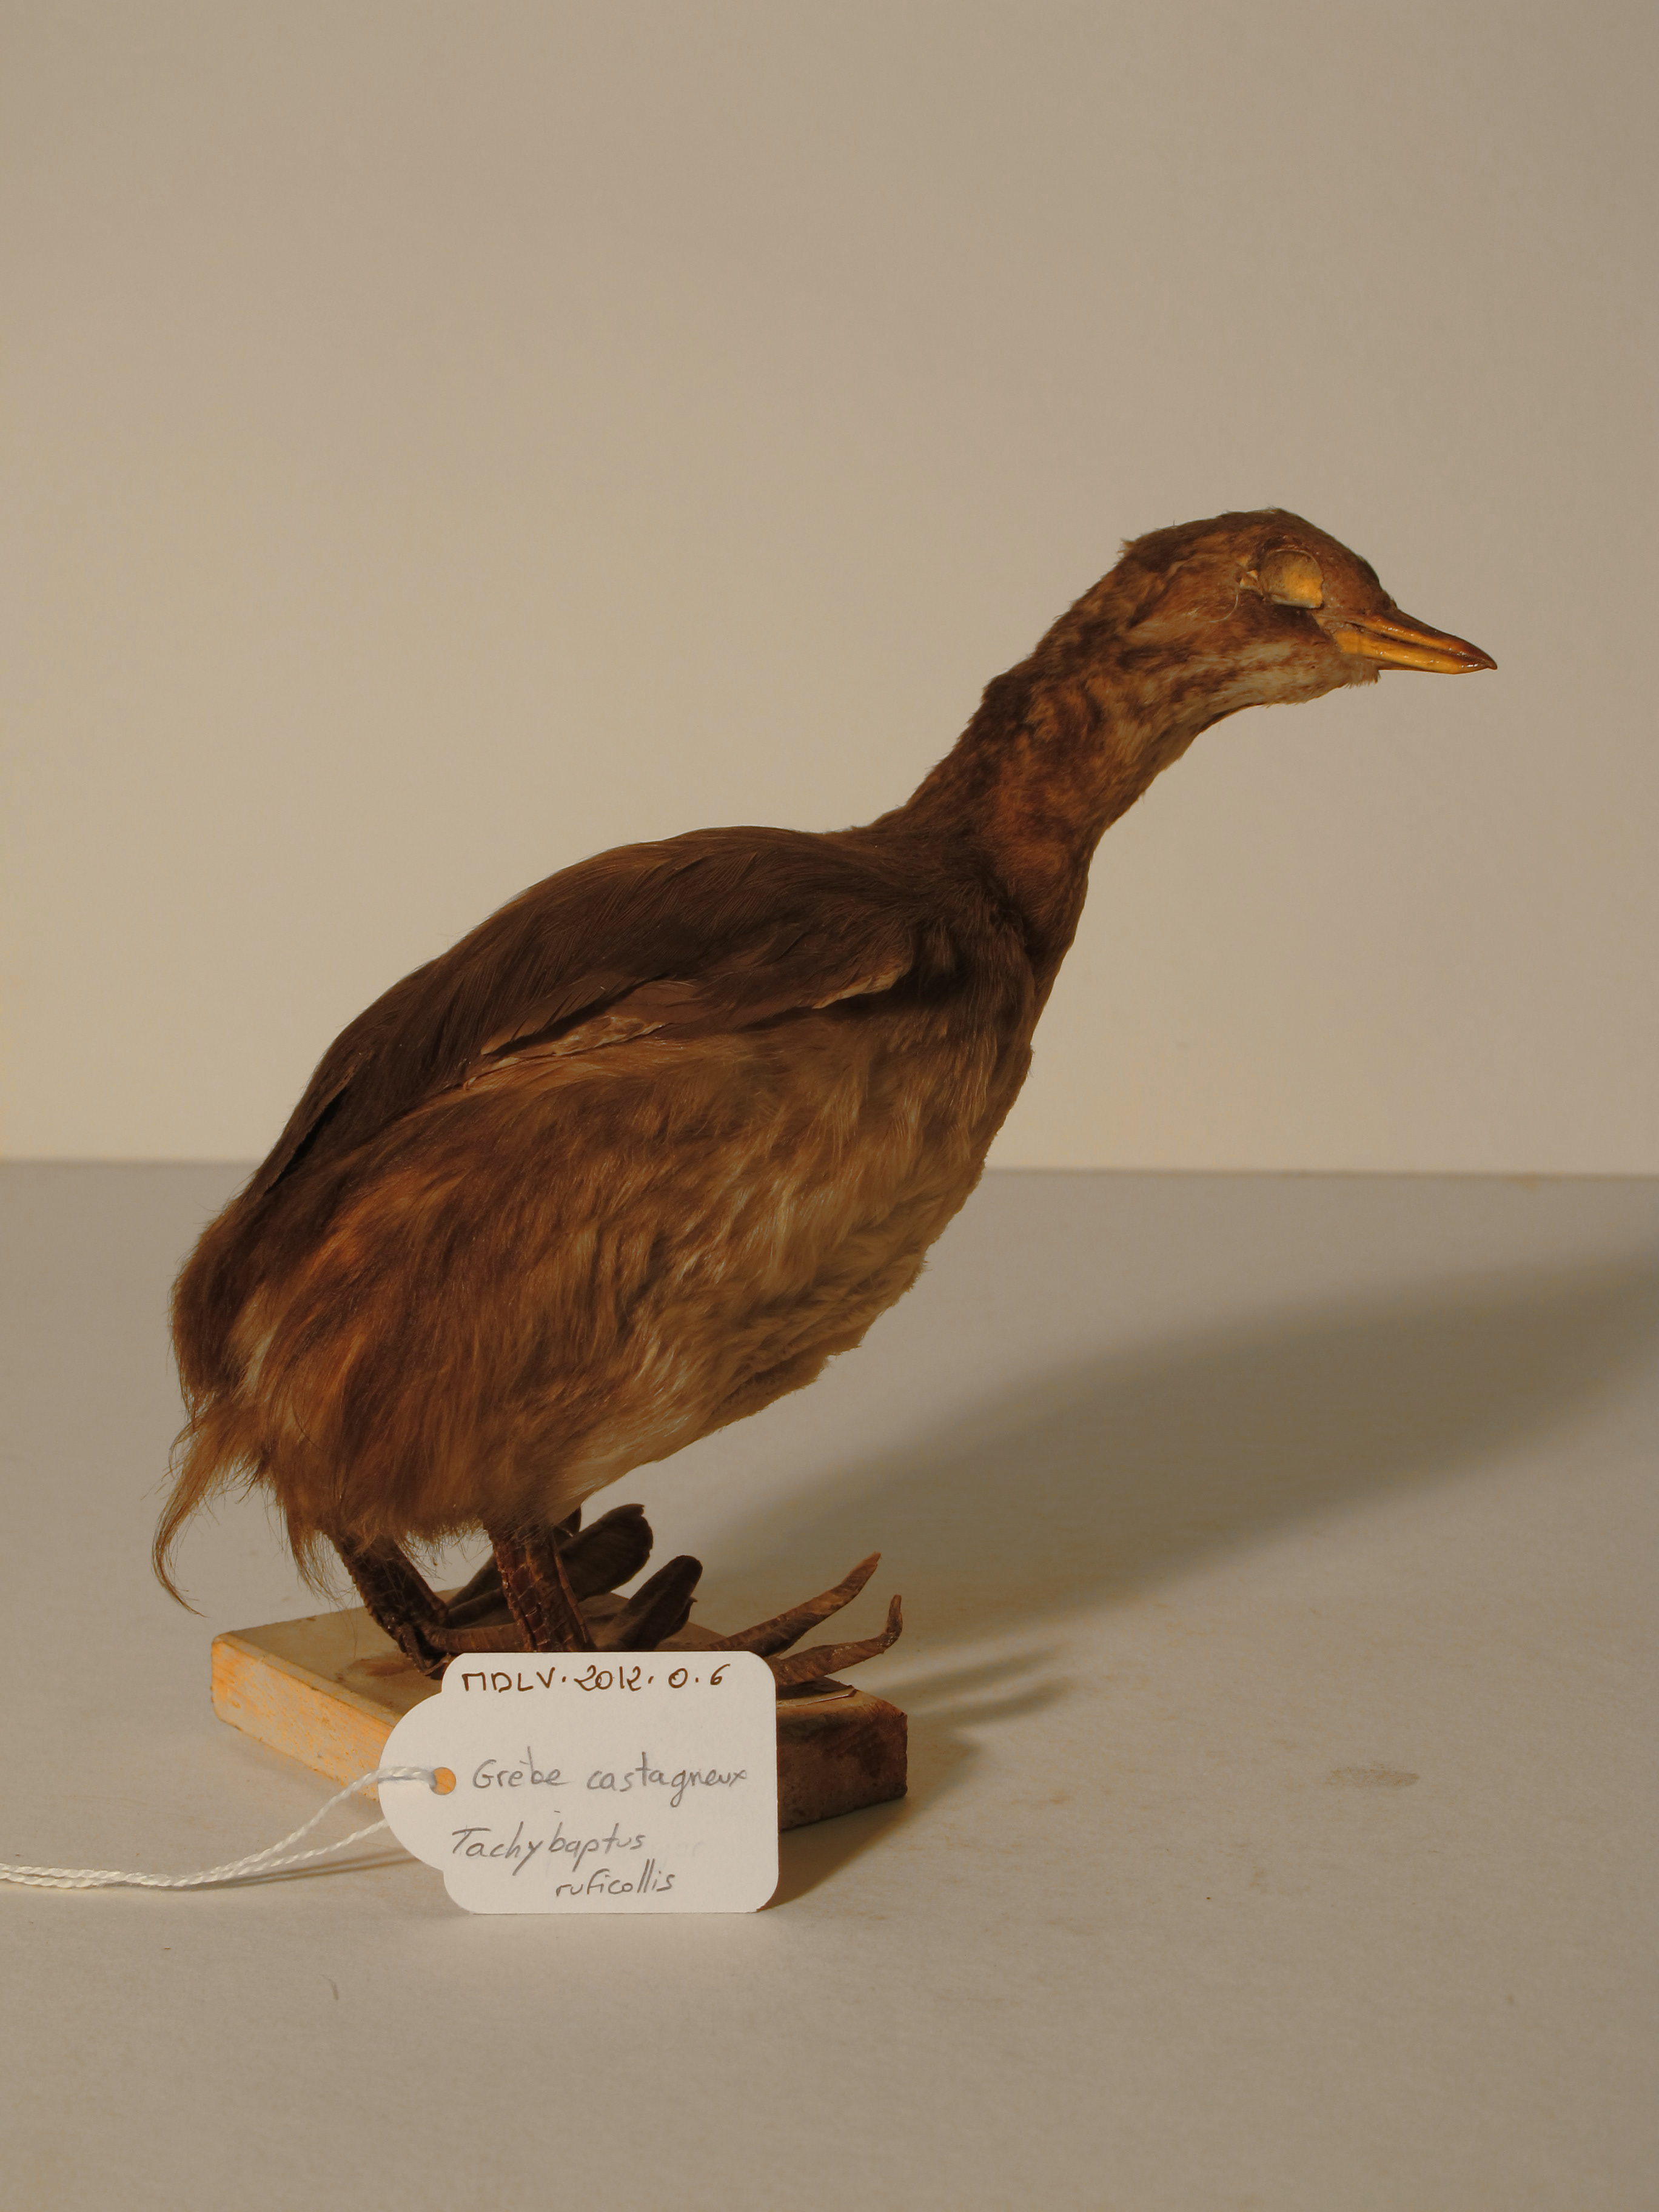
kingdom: Animalia
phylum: Chordata
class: Aves
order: Podicipediformes
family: Podicipedidae
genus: Tachybaptus
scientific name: Tachybaptus ruficollis
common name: Little Grebe
